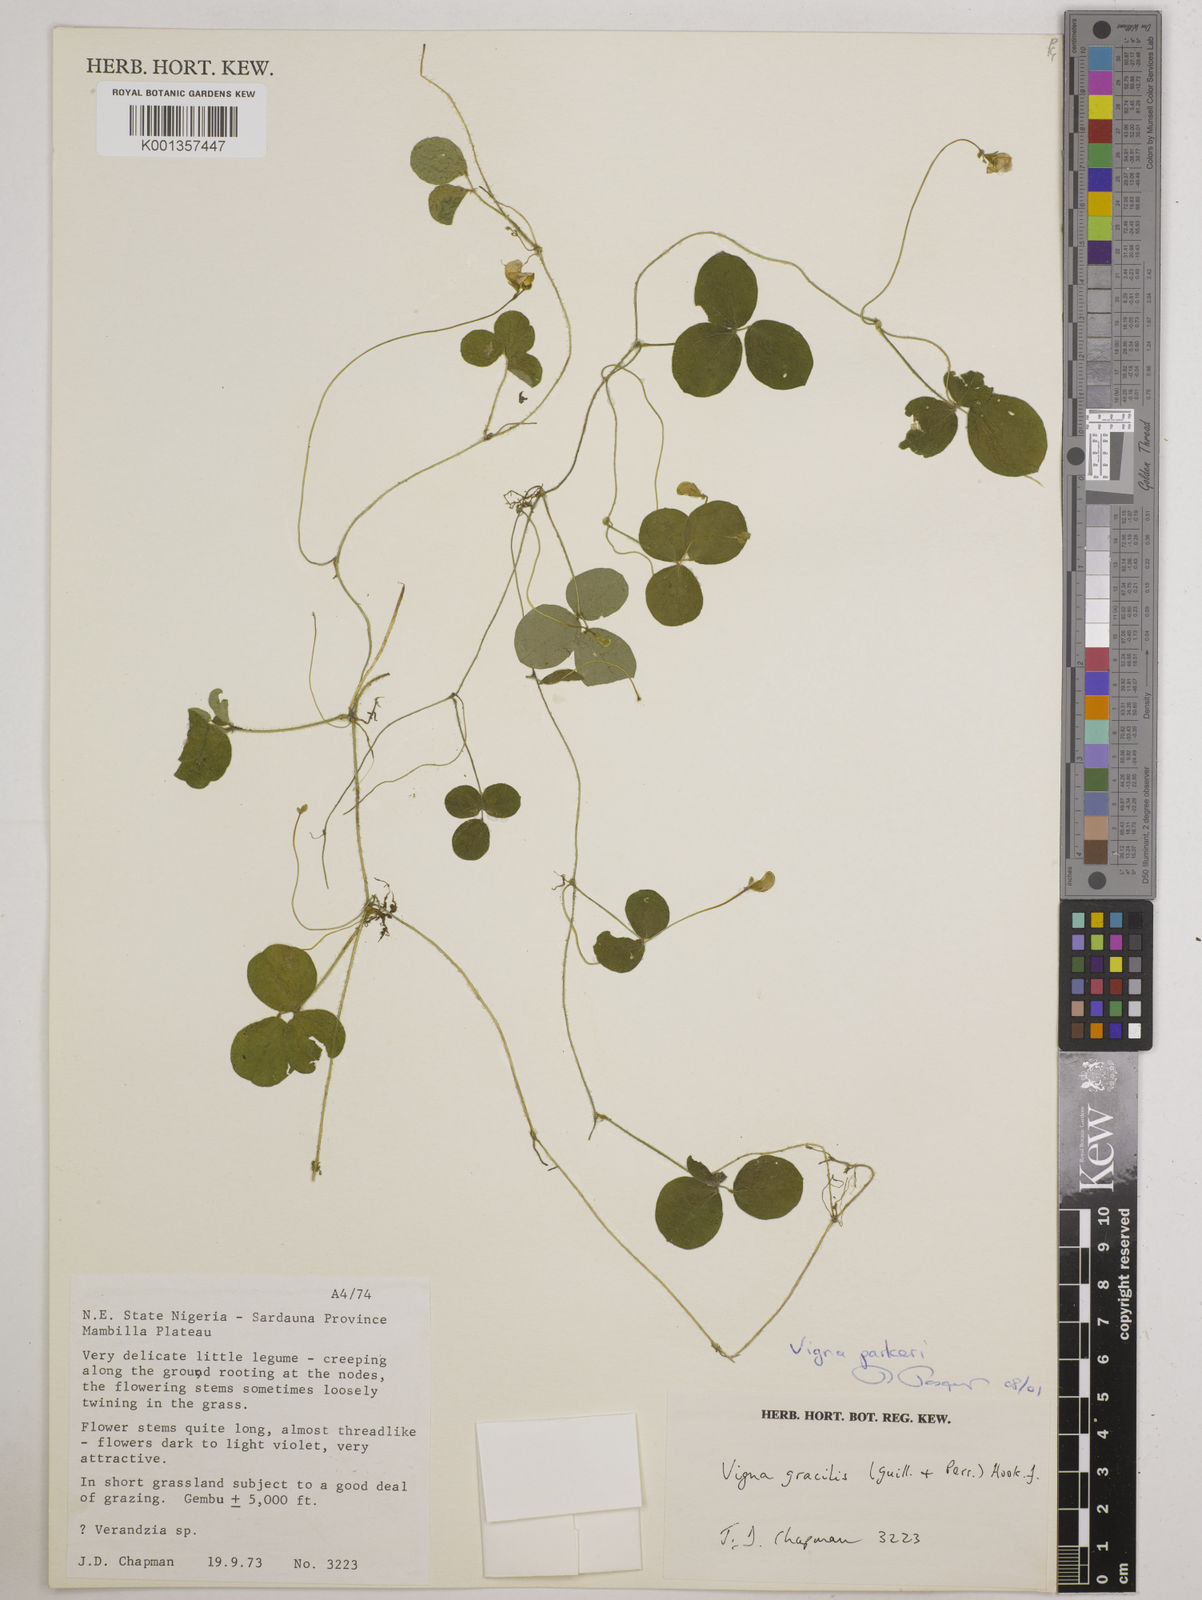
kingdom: Plantae
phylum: Tracheophyta
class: Magnoliopsida
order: Fabales
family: Fabaceae
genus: Vigna
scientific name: Vigna parkeri
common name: Creeping vigna
